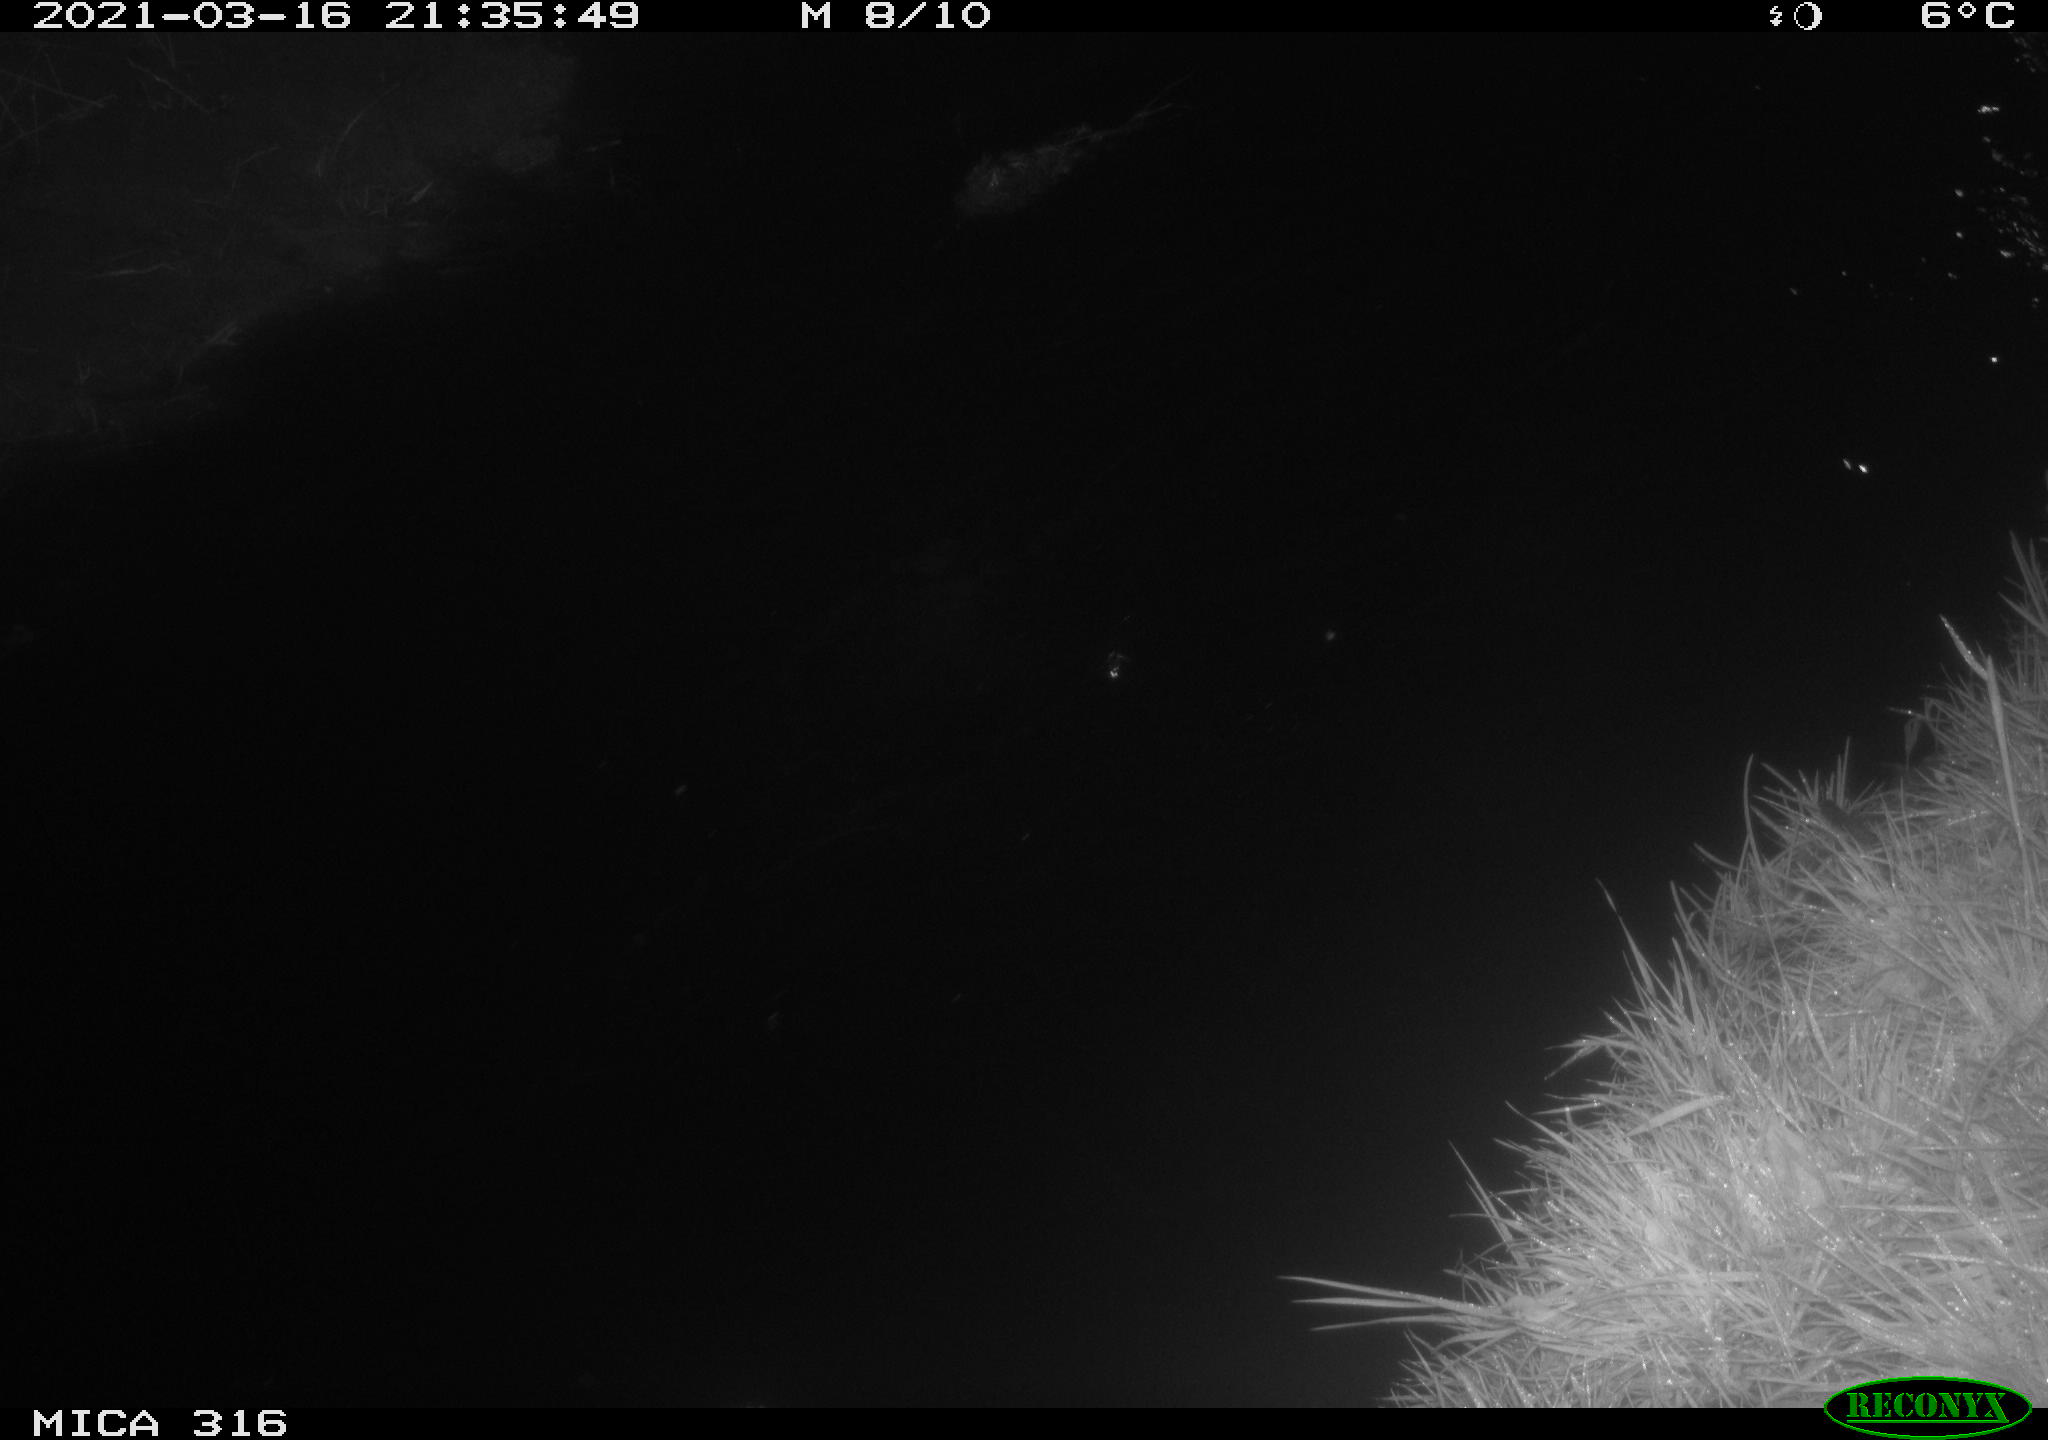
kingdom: Animalia
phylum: Chordata
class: Aves
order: Anseriformes
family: Anatidae
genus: Anas
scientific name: Anas platyrhynchos
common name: Mallard
